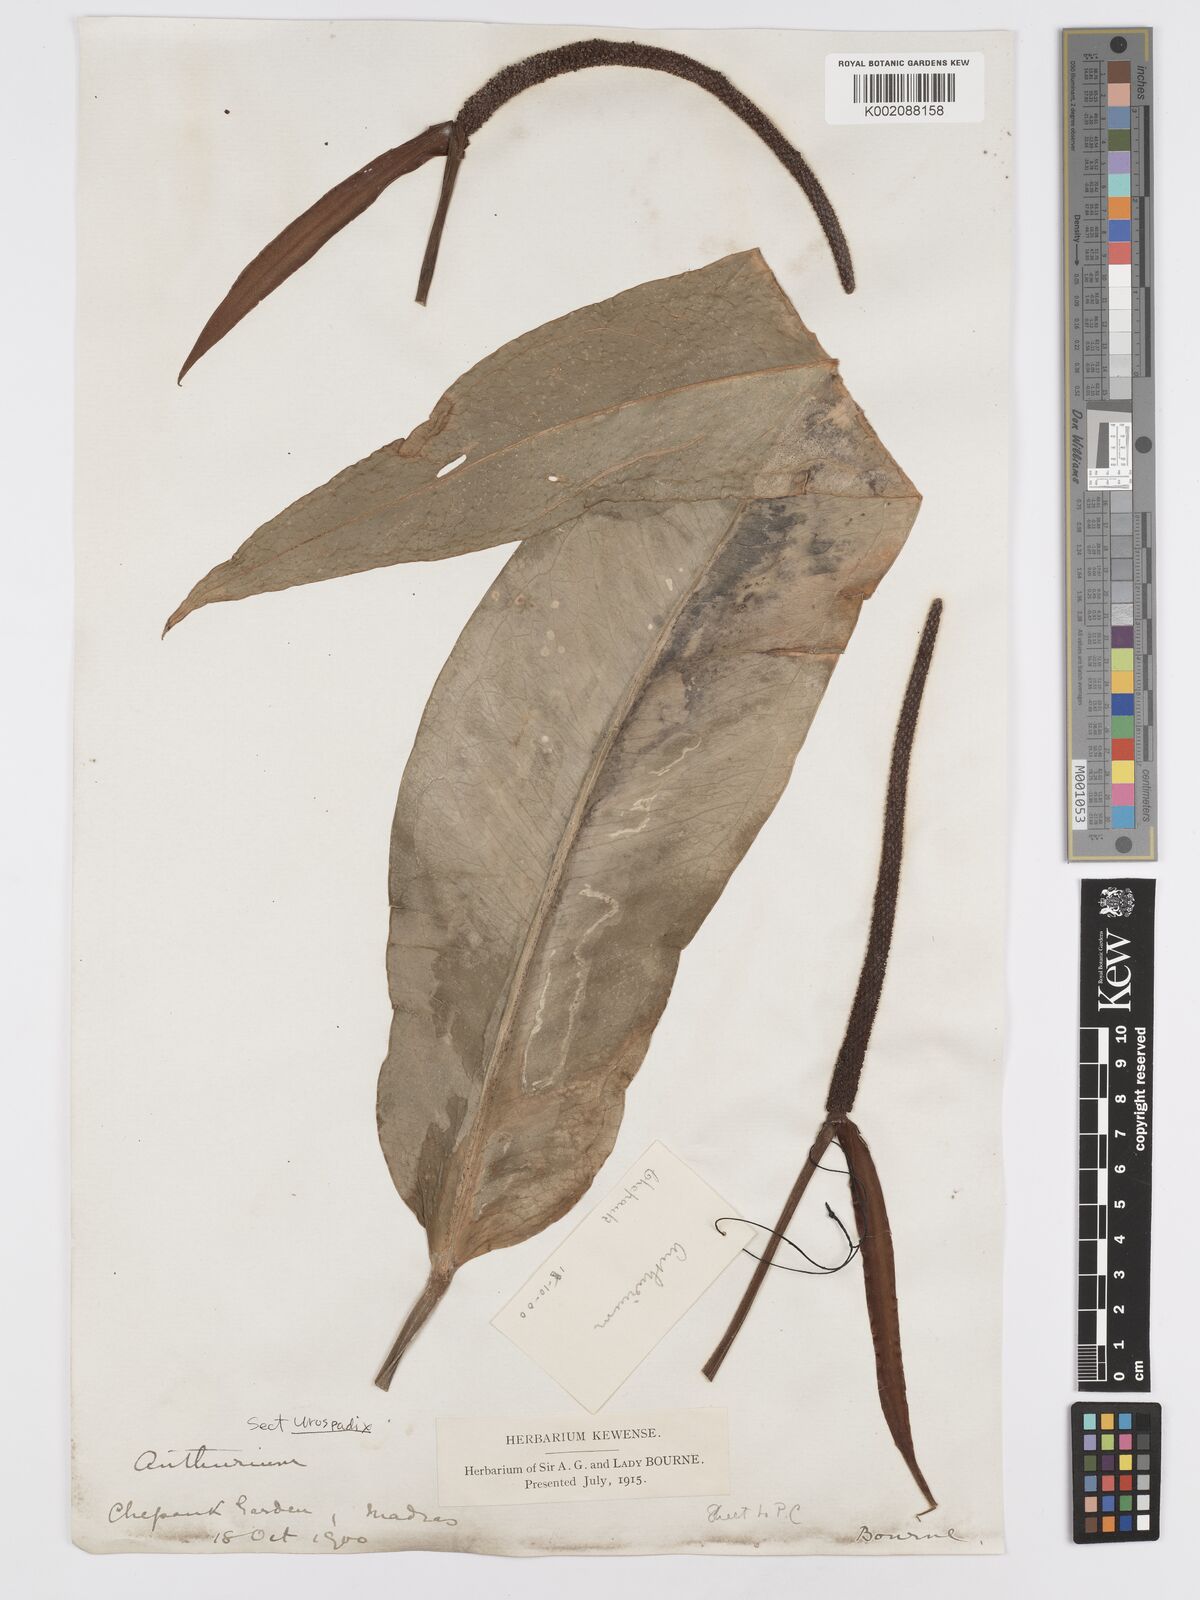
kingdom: Plantae
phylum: Tracheophyta
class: Liliopsida
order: Alismatales
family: Araceae
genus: Anthurium
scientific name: Anthurium
